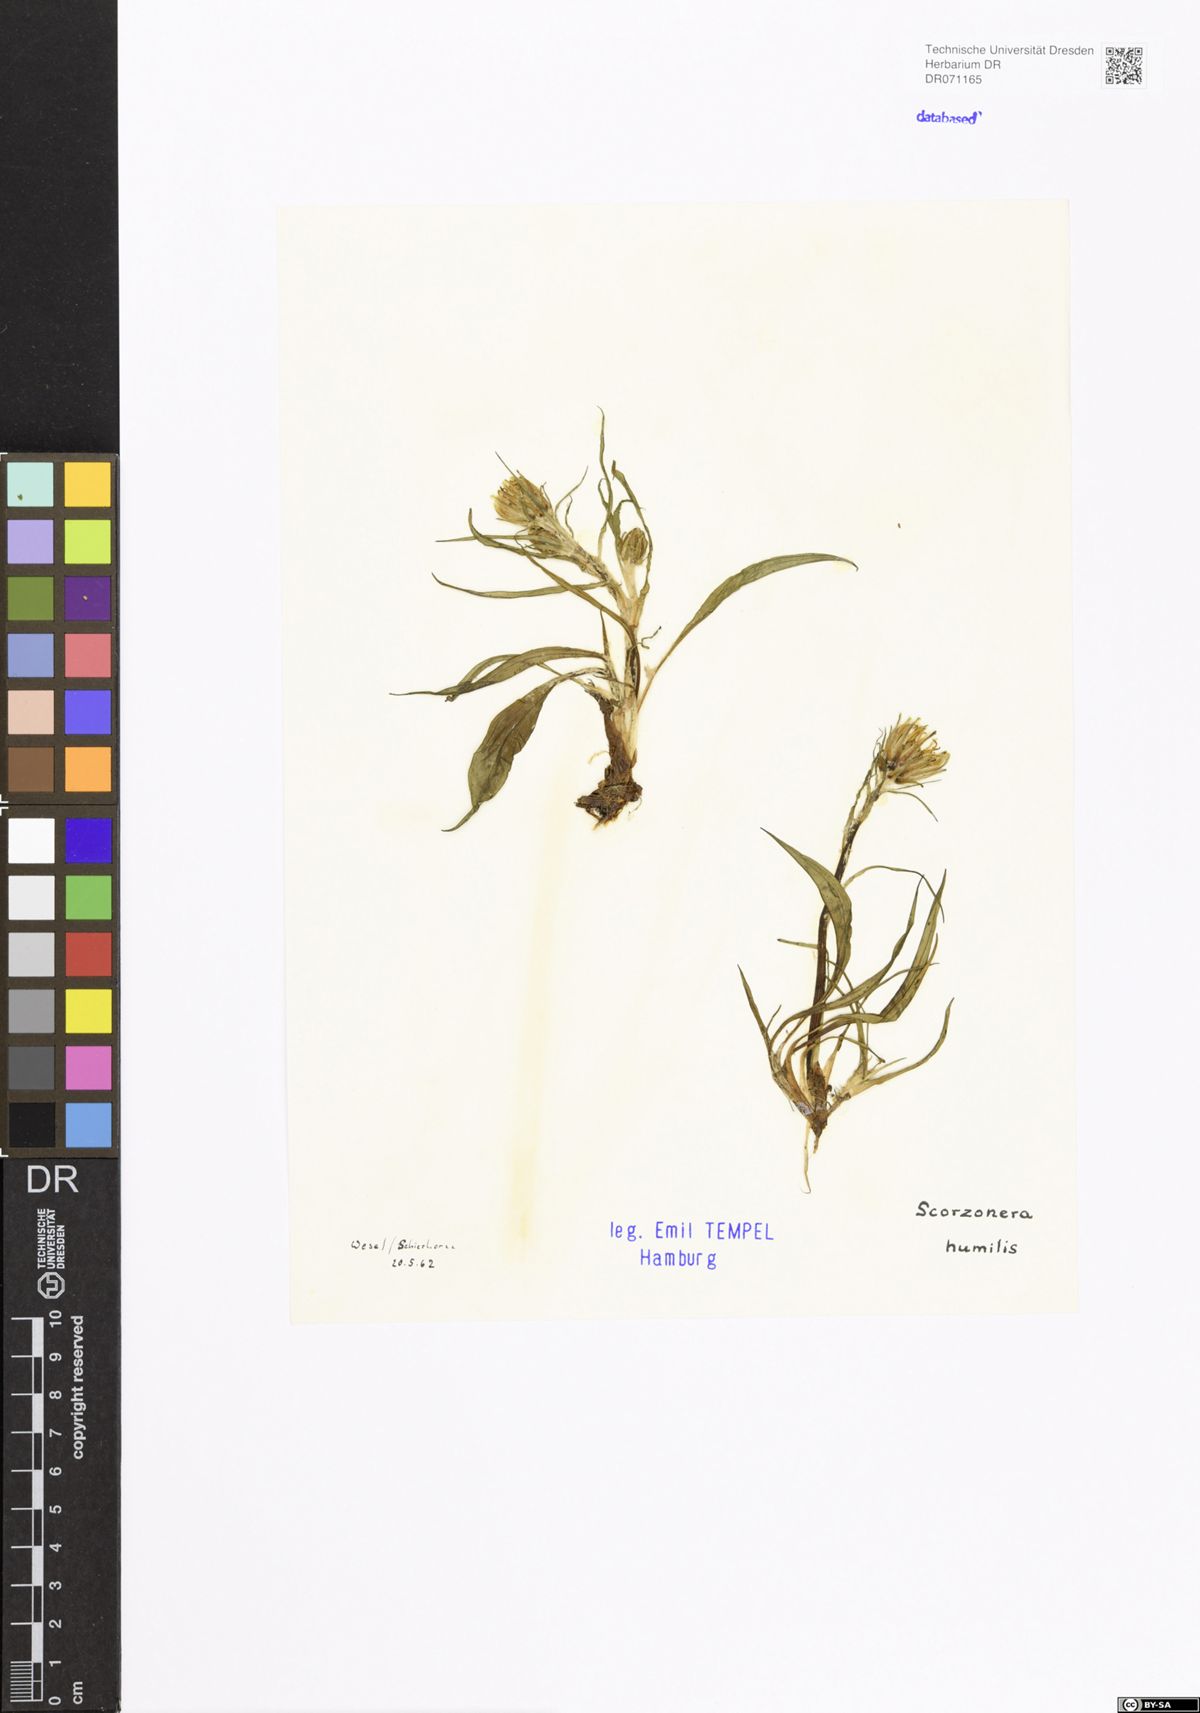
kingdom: Plantae
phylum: Tracheophyta
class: Magnoliopsida
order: Asterales
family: Asteraceae
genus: Scorzonera
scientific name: Scorzonera humilis
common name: Viper's-grass
